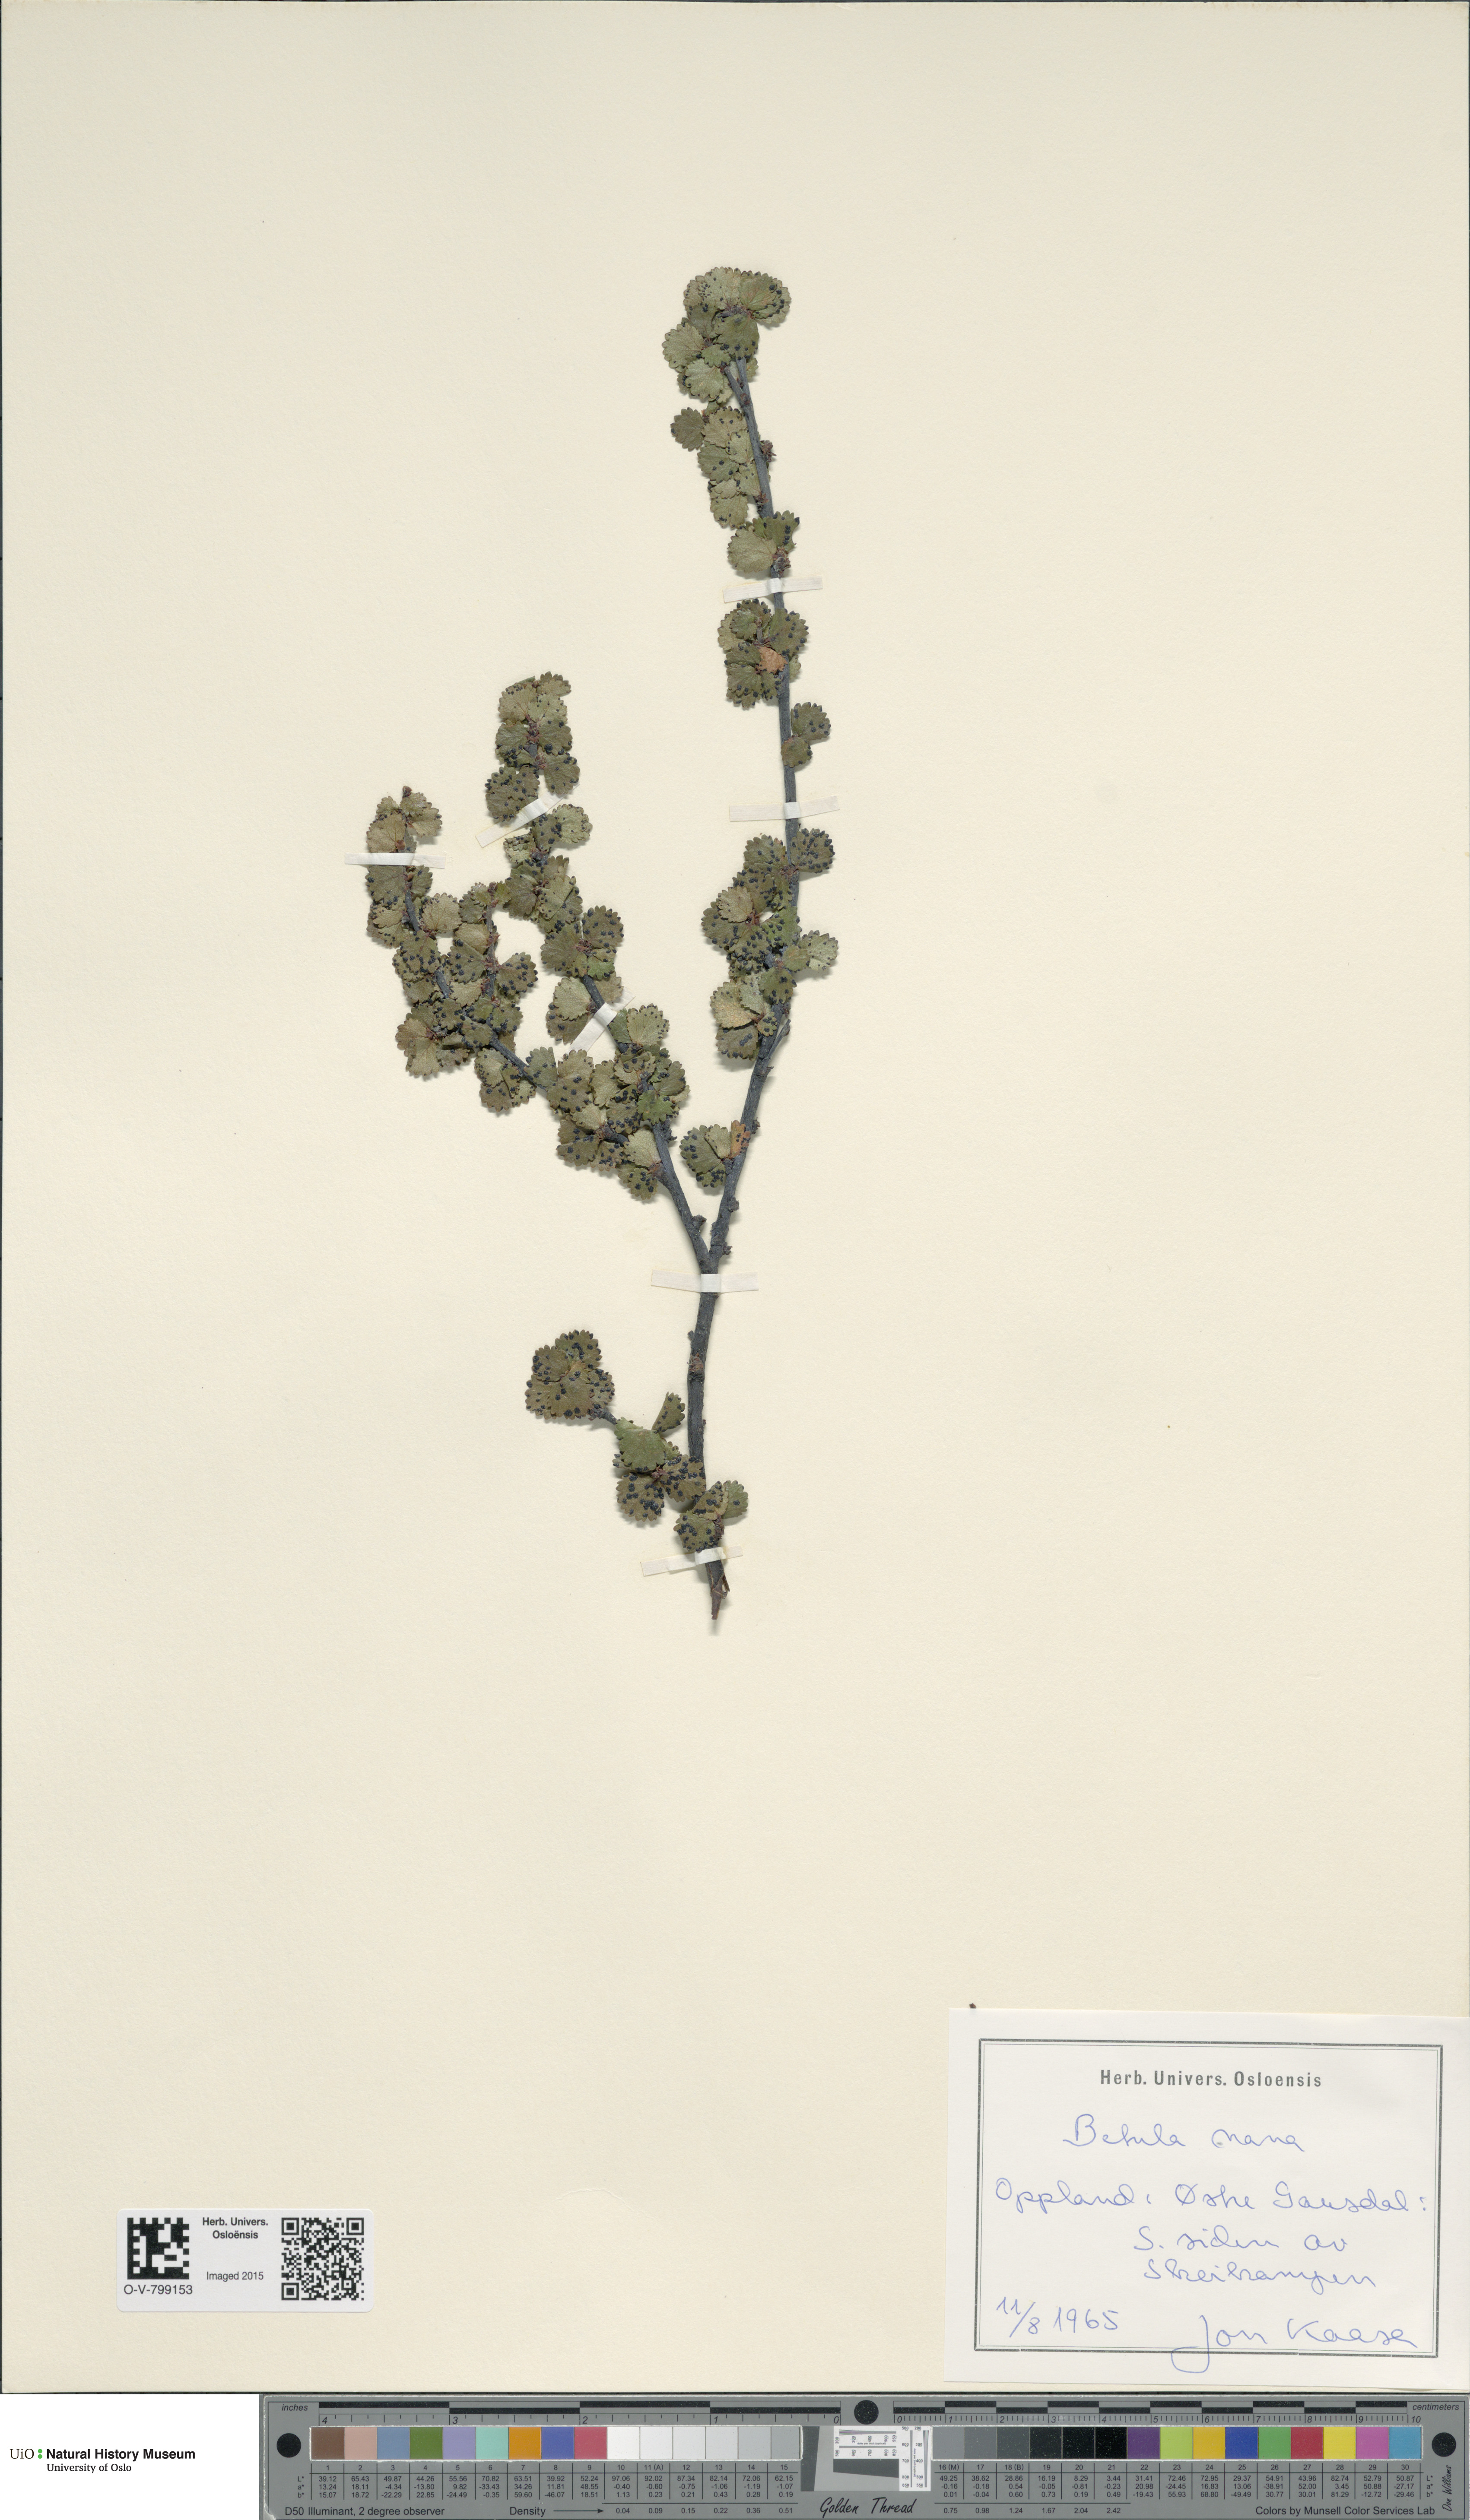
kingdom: Plantae
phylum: Tracheophyta
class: Magnoliopsida
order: Fagales
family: Betulaceae
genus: Betula
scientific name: Betula nana
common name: Arctic dwarf birch
